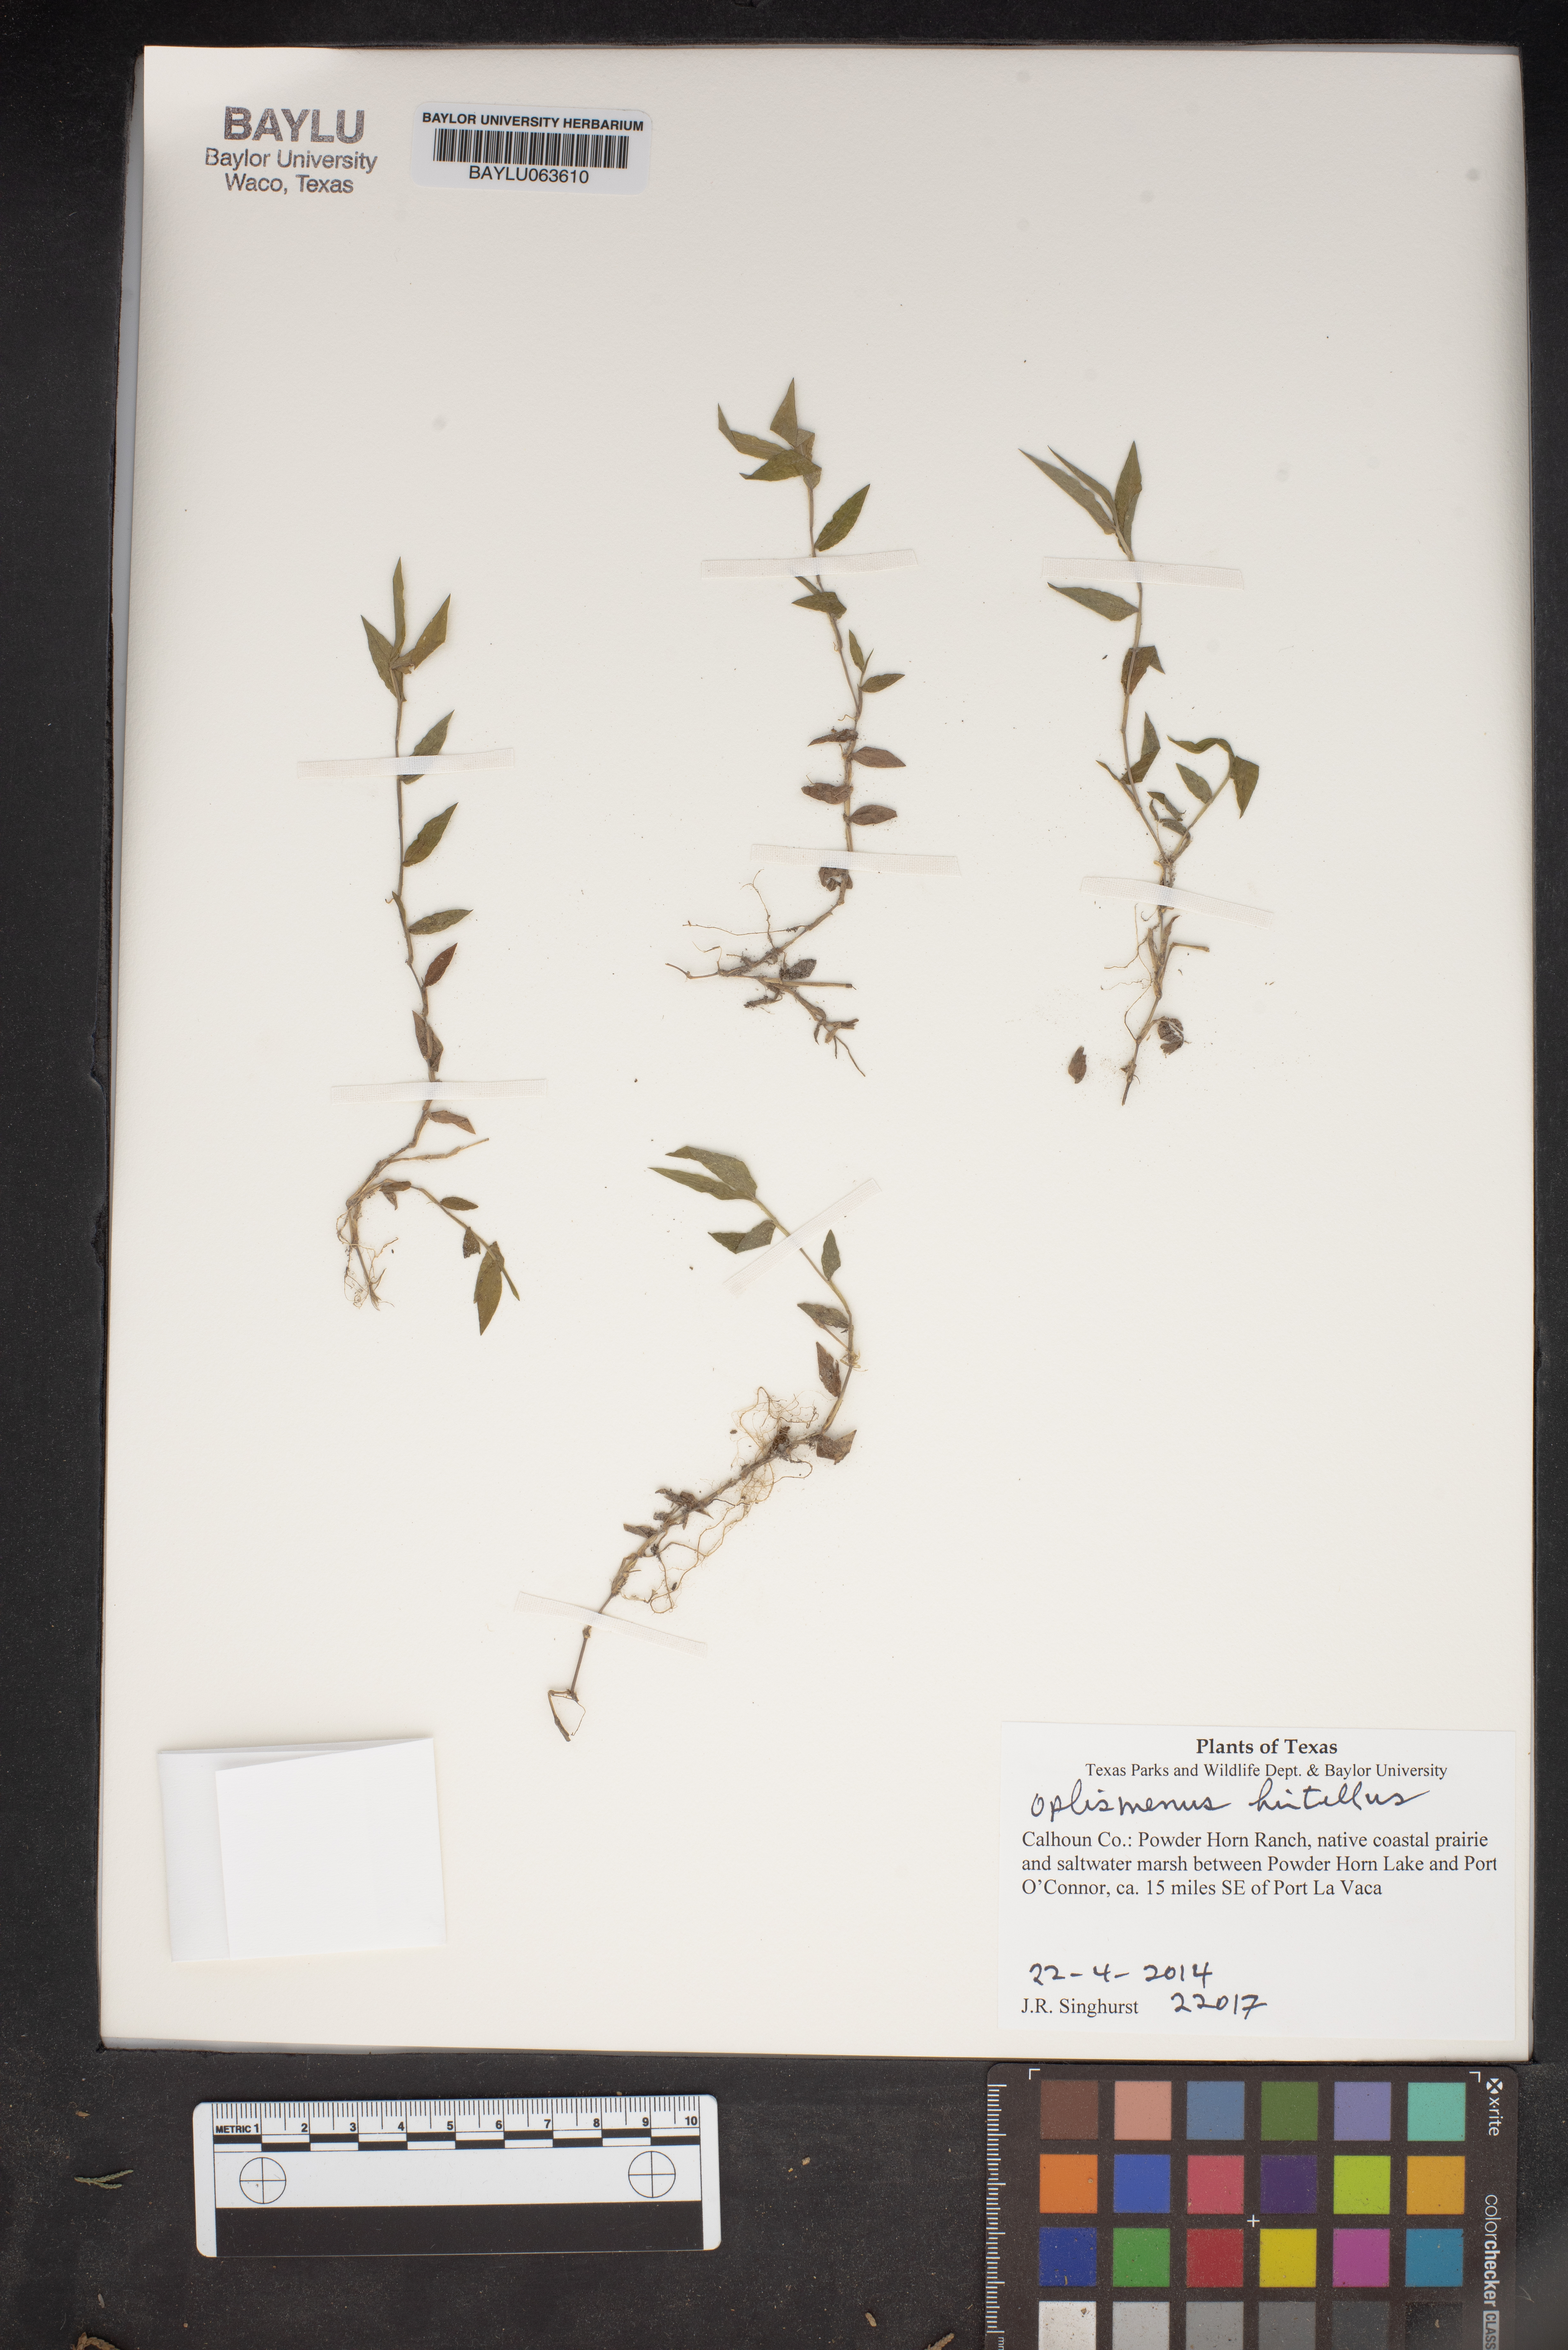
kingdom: Plantae
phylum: Tracheophyta
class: Liliopsida
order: Poales
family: Poaceae
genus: Oplismenus
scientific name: Oplismenus hirtellus
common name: Basketgrass
